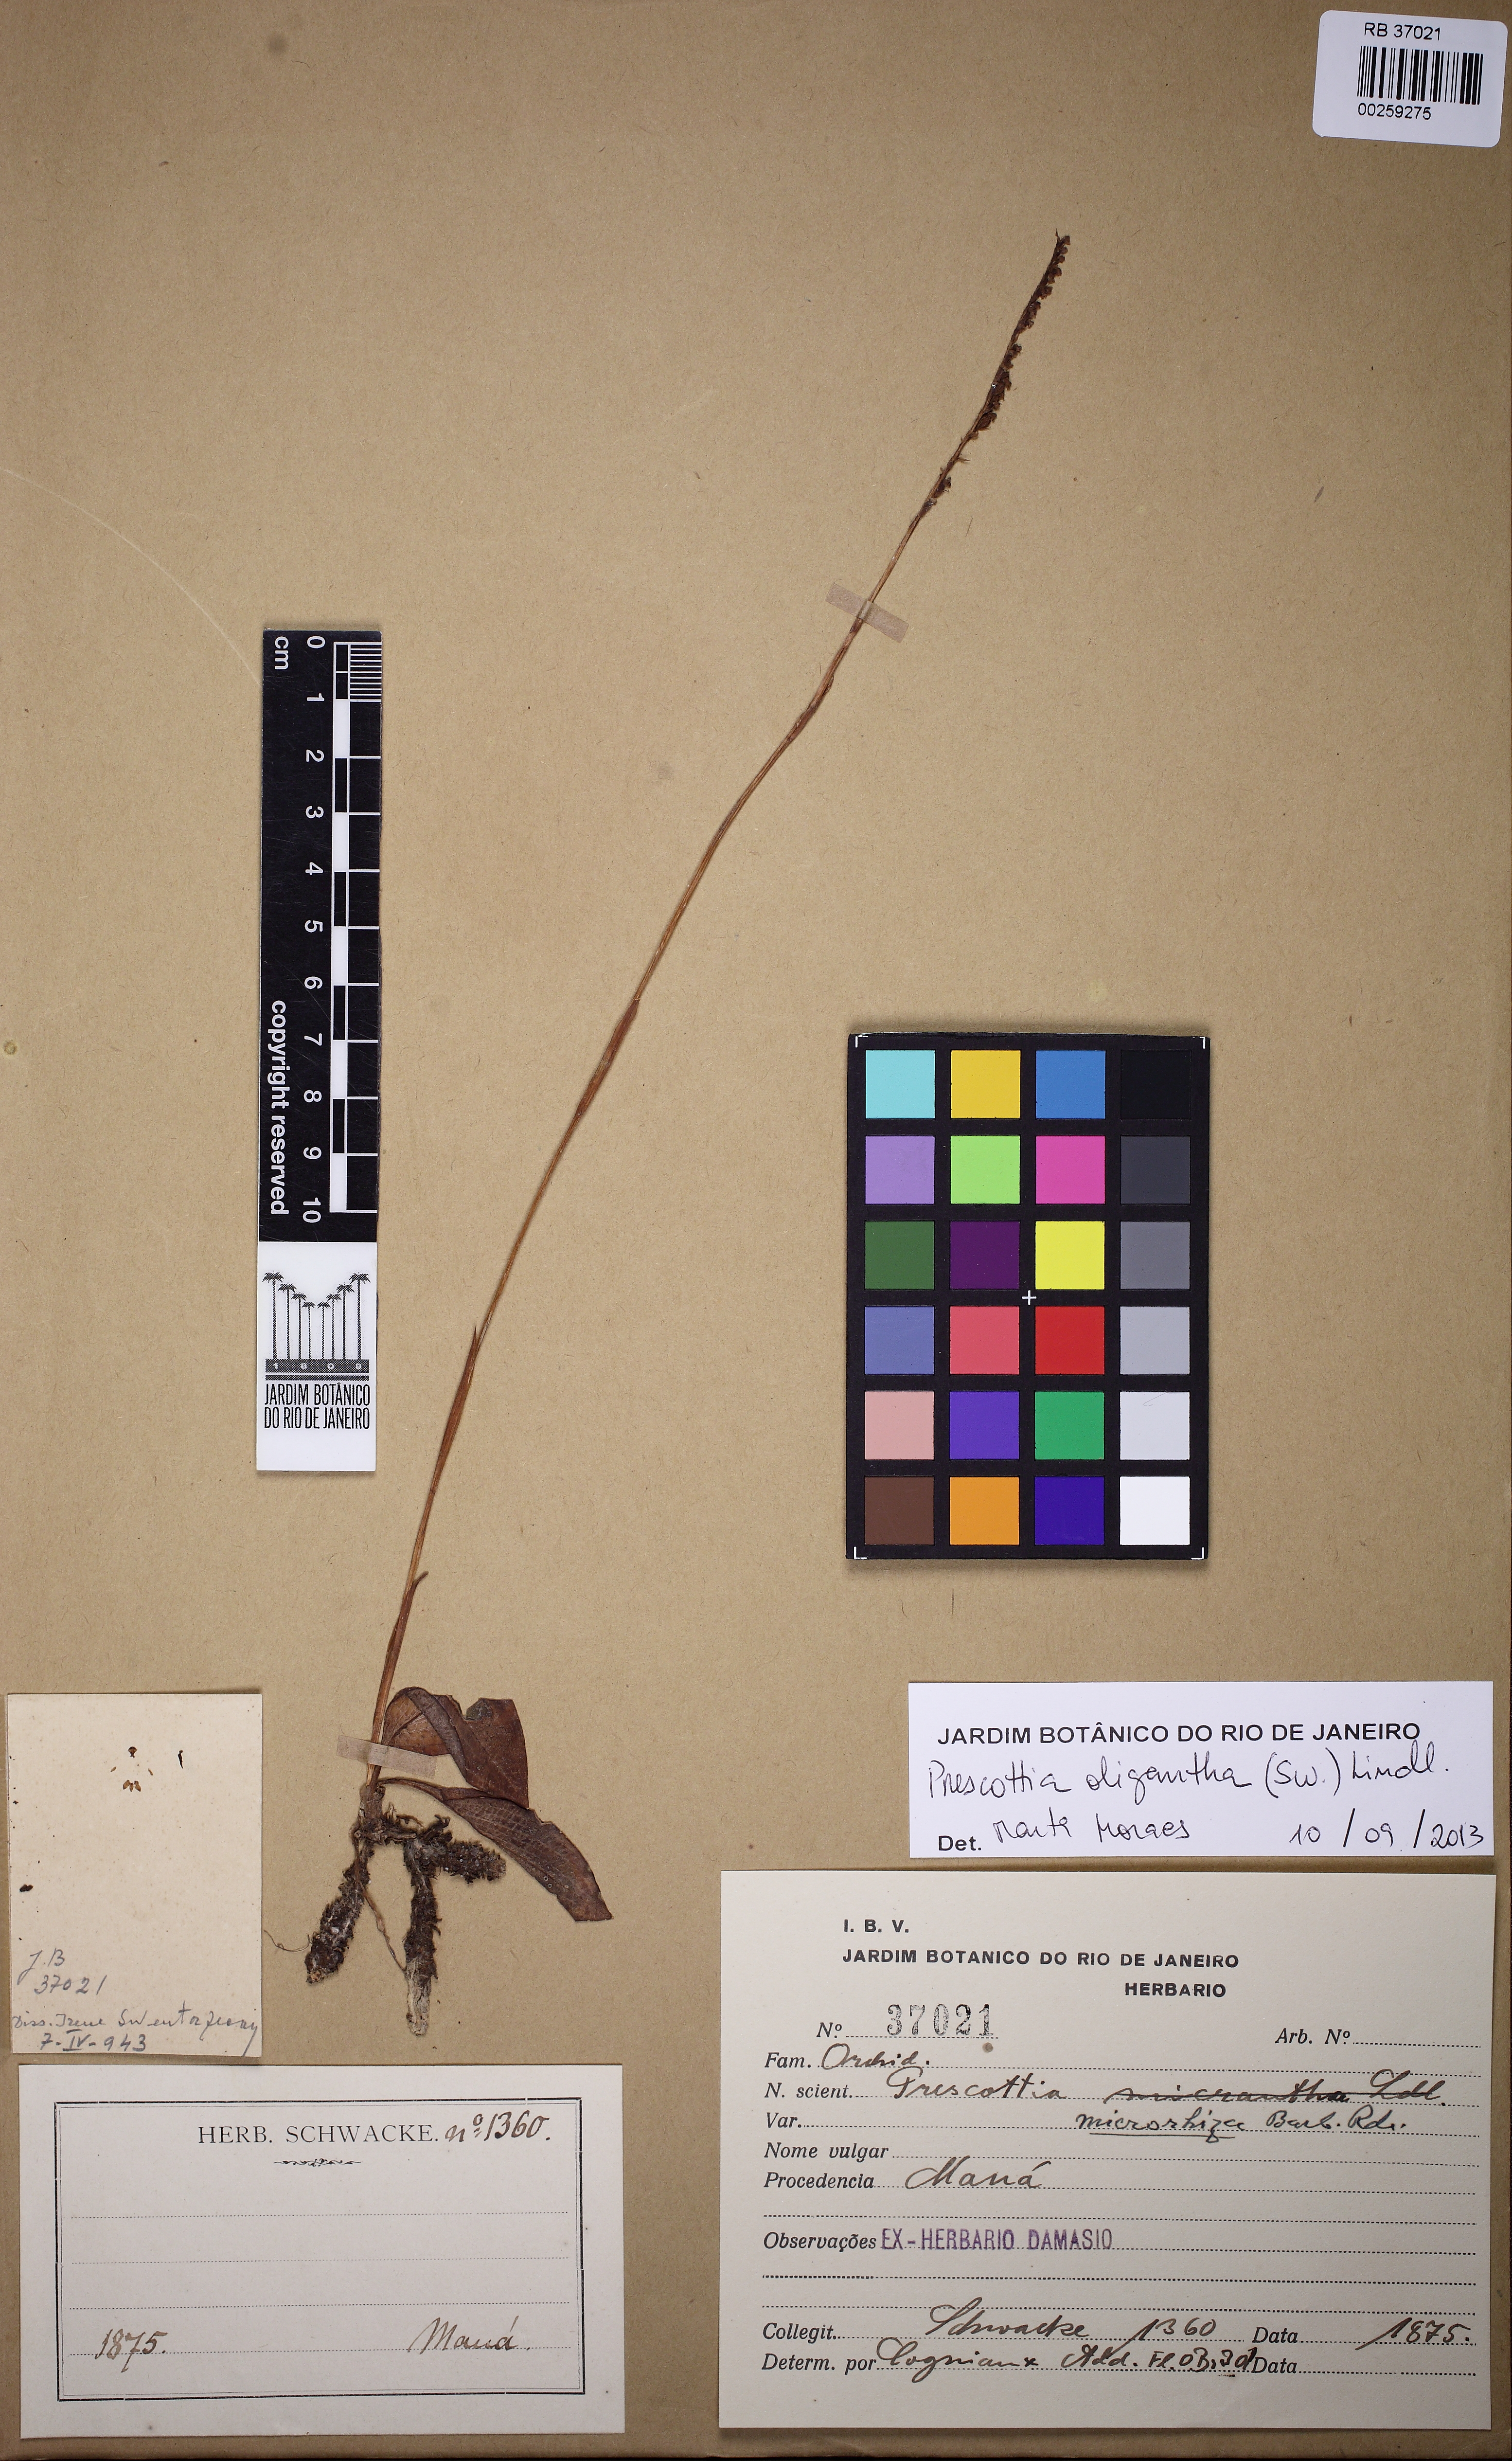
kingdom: Plantae
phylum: Tracheophyta
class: Liliopsida
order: Asparagales
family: Orchidaceae
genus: Prescottia
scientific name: Prescottia oligantha
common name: Small prescott orchid
